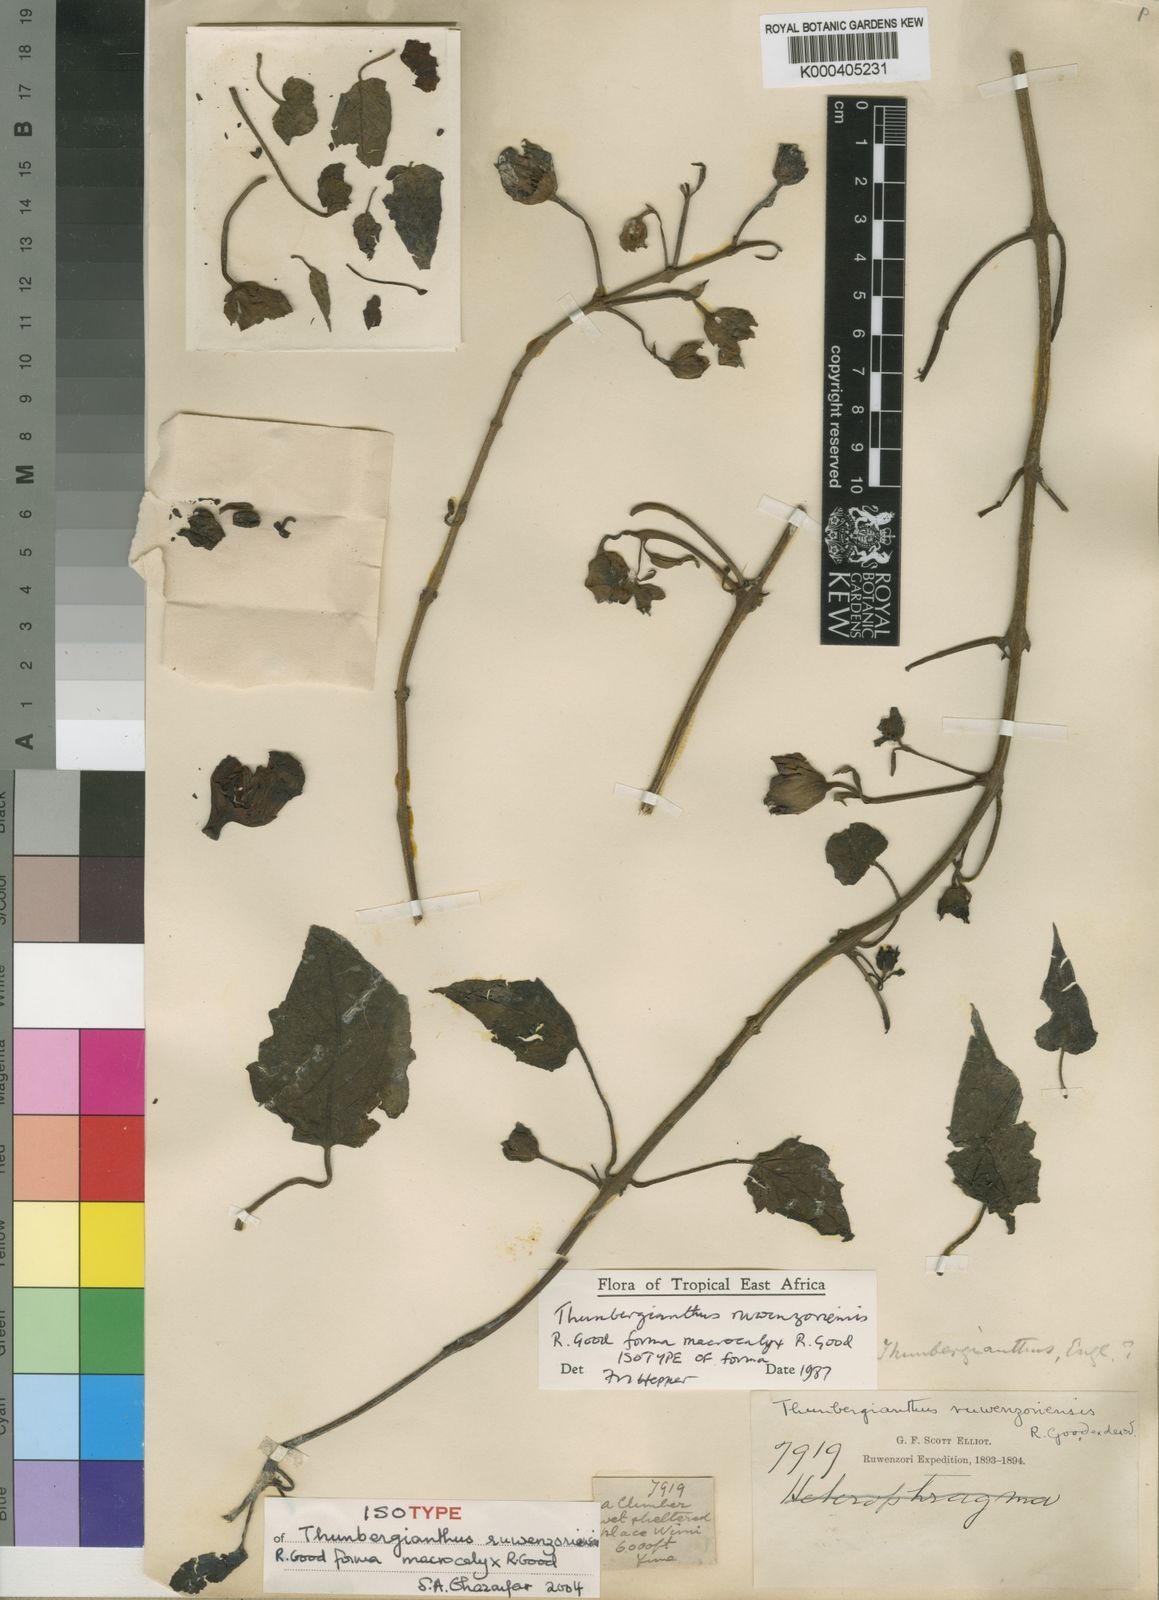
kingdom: Plantae
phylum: Tracheophyta
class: Magnoliopsida
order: Lamiales
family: Orobanchaceae
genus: Thunbergianthus
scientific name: Thunbergianthus ruwenzoriensis
